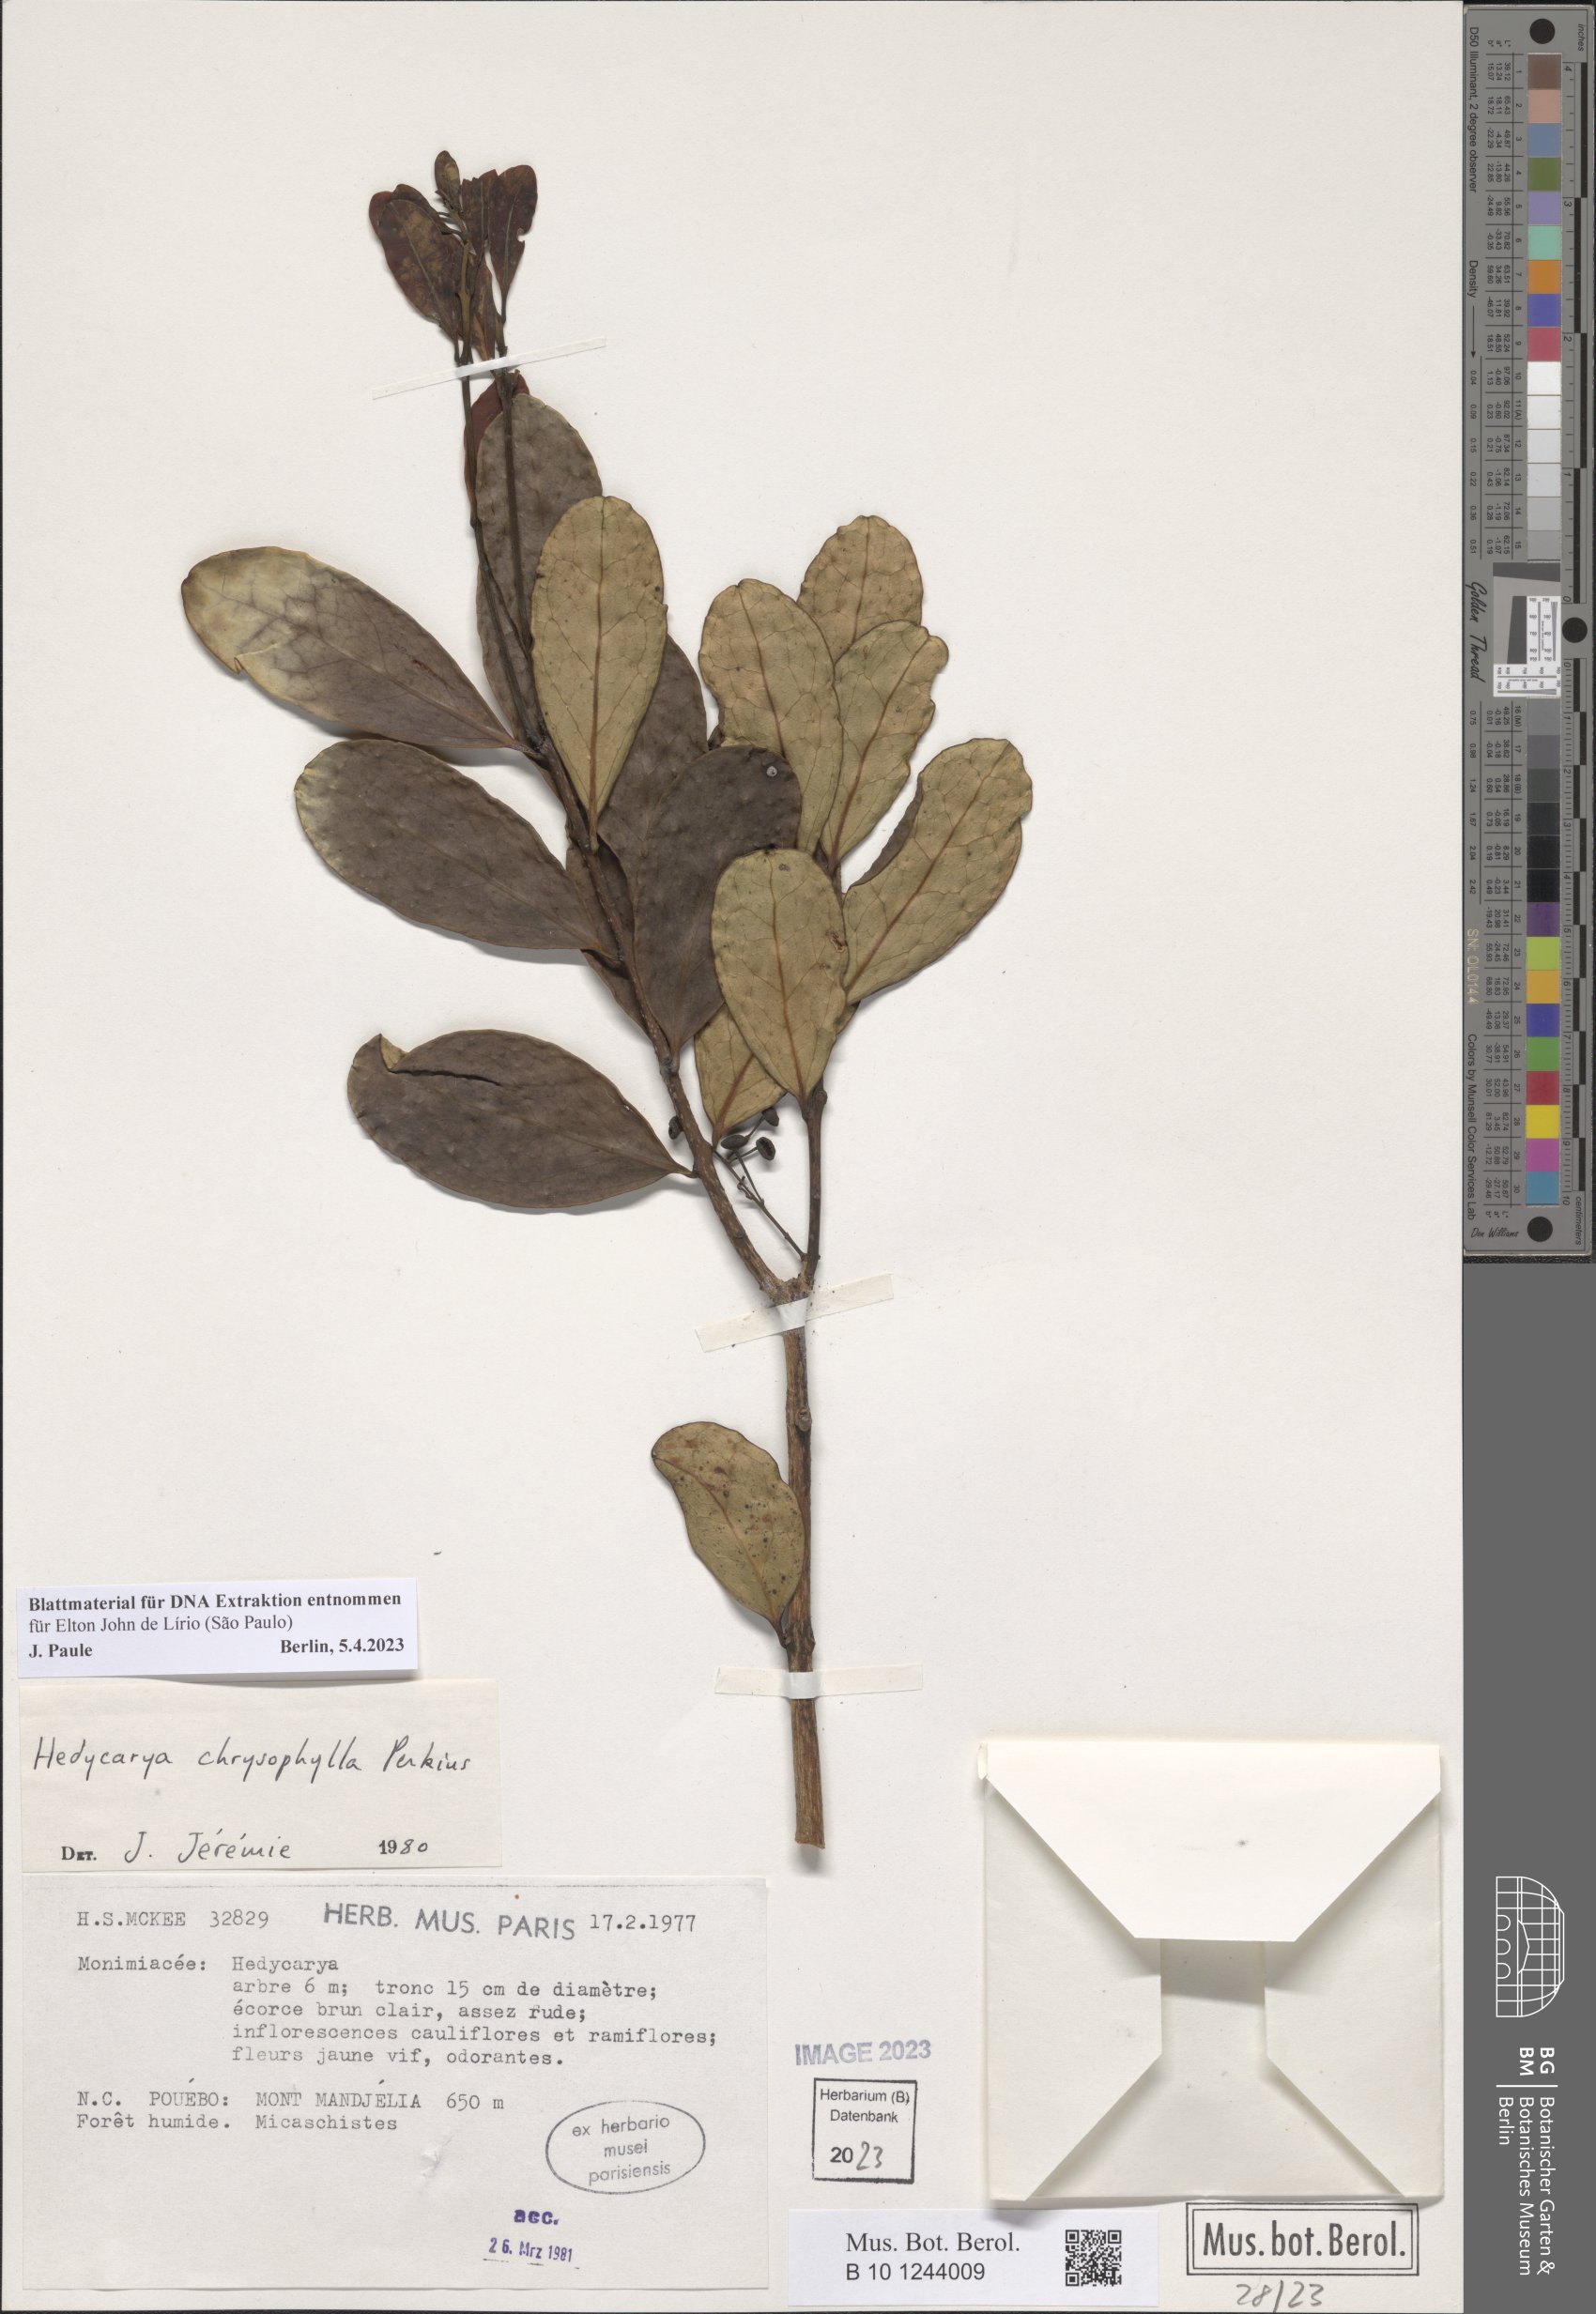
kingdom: Plantae
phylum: Tracheophyta
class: Magnoliopsida
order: Laurales
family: Monimiaceae
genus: Hedycarya
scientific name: Hedycarya chrysophylla
